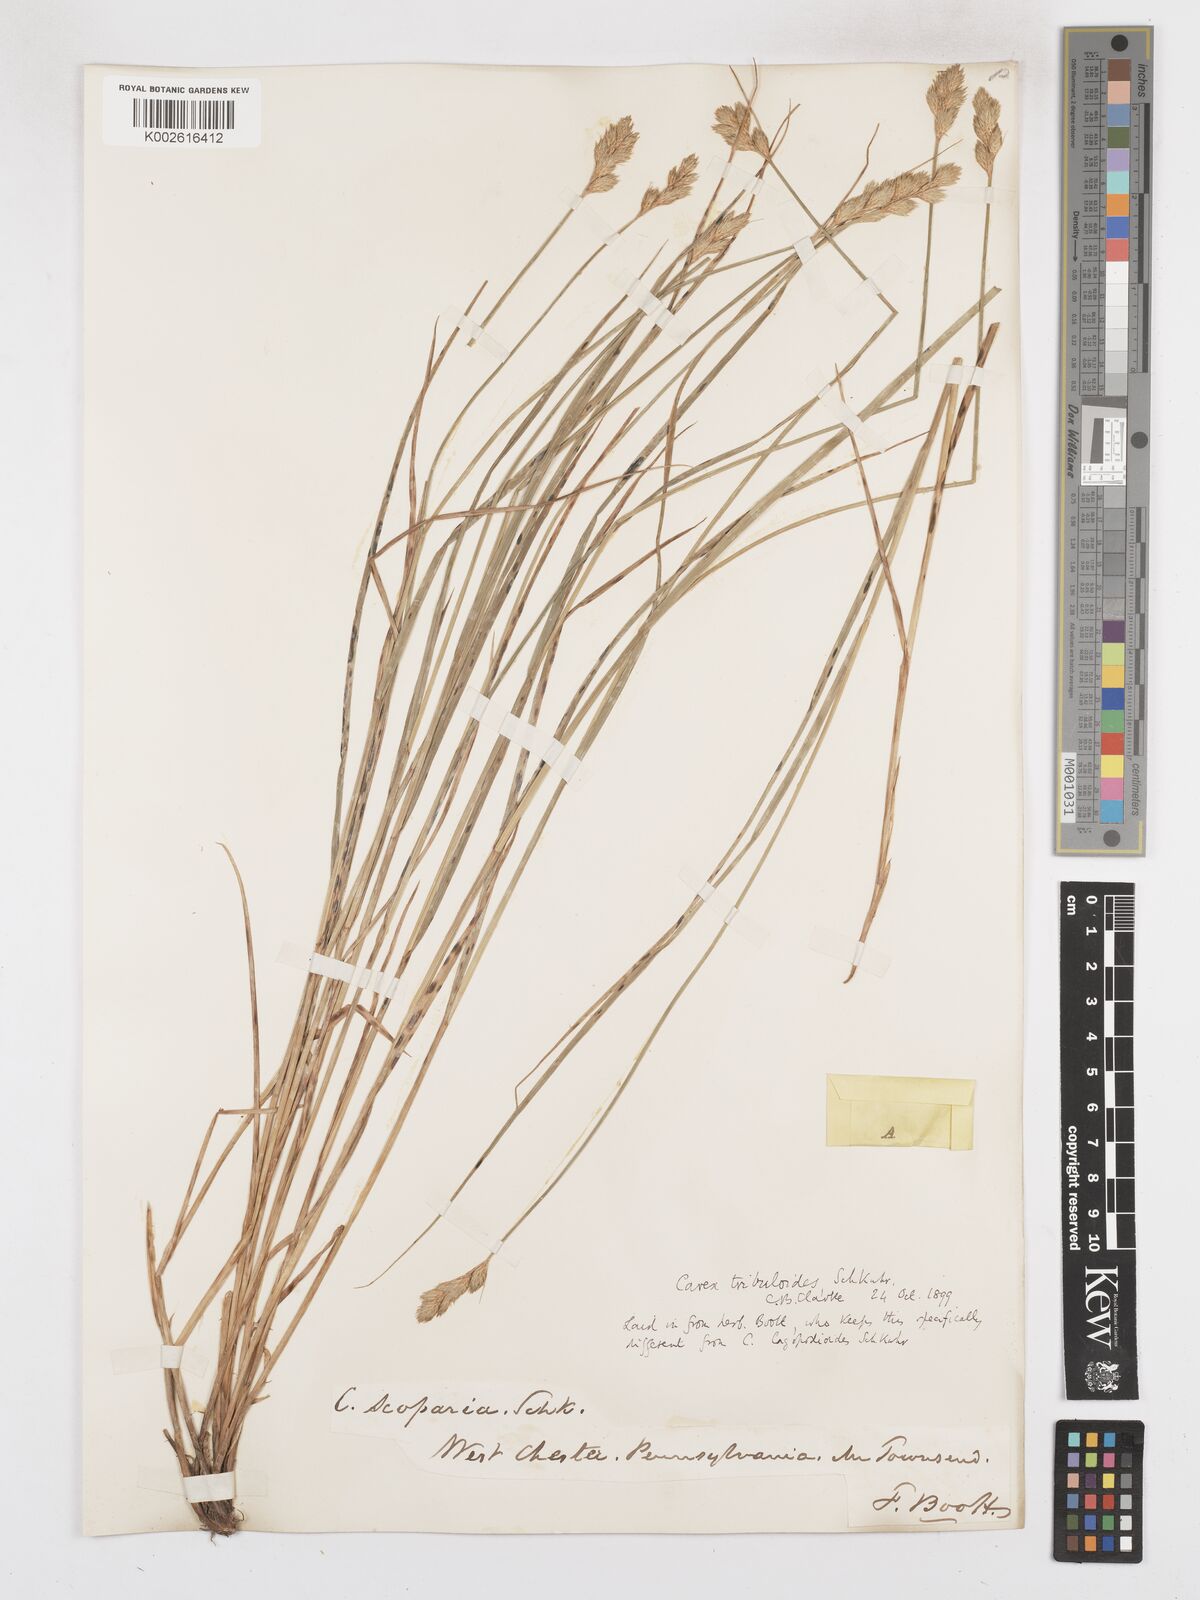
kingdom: Plantae
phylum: Tracheophyta
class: Liliopsida
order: Poales
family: Cyperaceae
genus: Carex
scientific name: Carex tribuloides
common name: Blunt broom sedge
